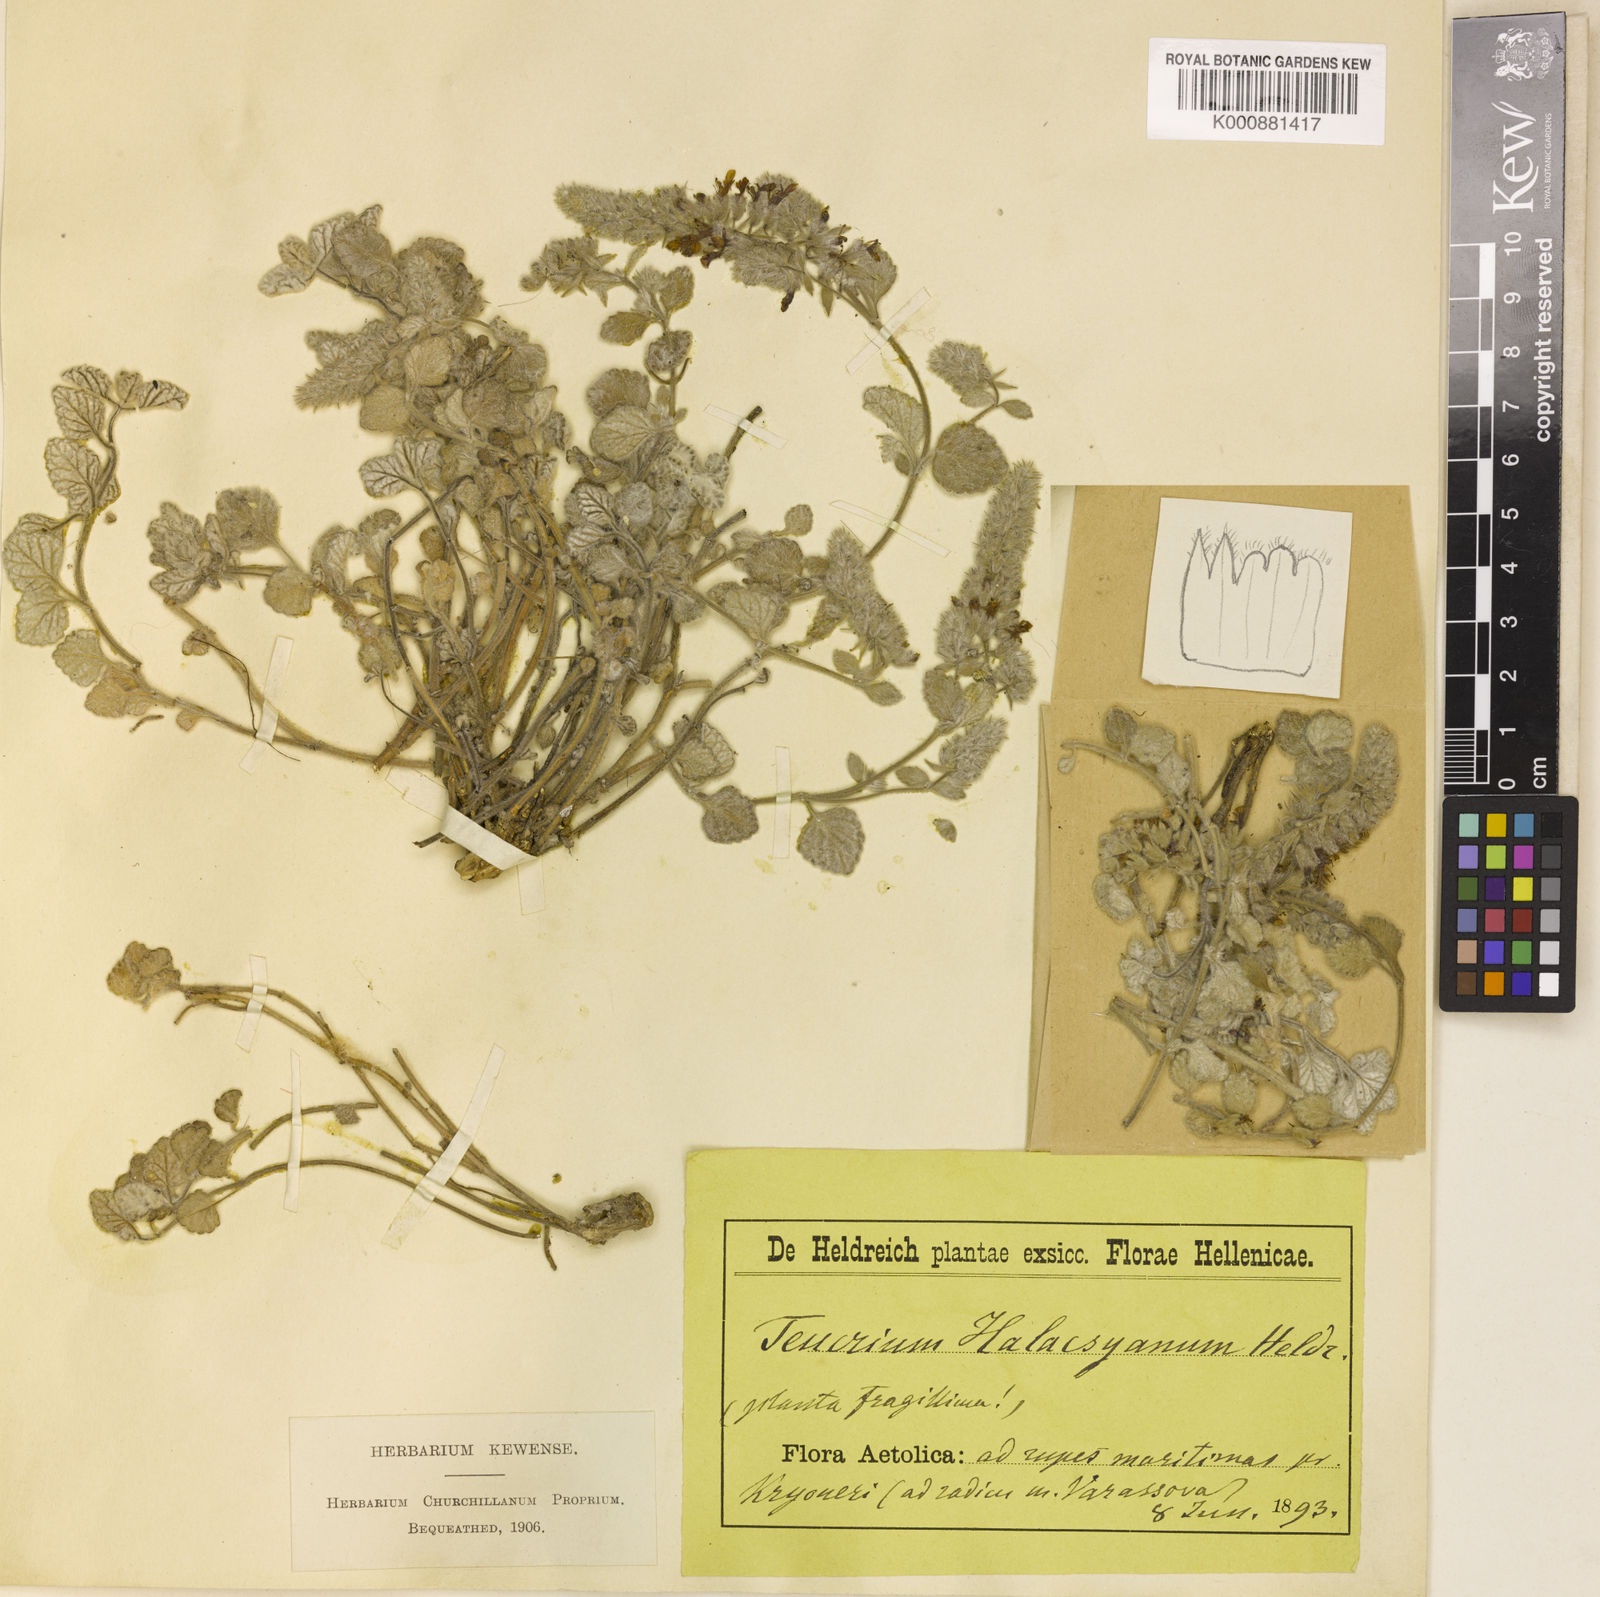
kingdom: Plantae
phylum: Tracheophyta
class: Magnoliopsida
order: Lamiales
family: Lamiaceae
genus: Teucrium
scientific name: Teucrium halacsyanum
